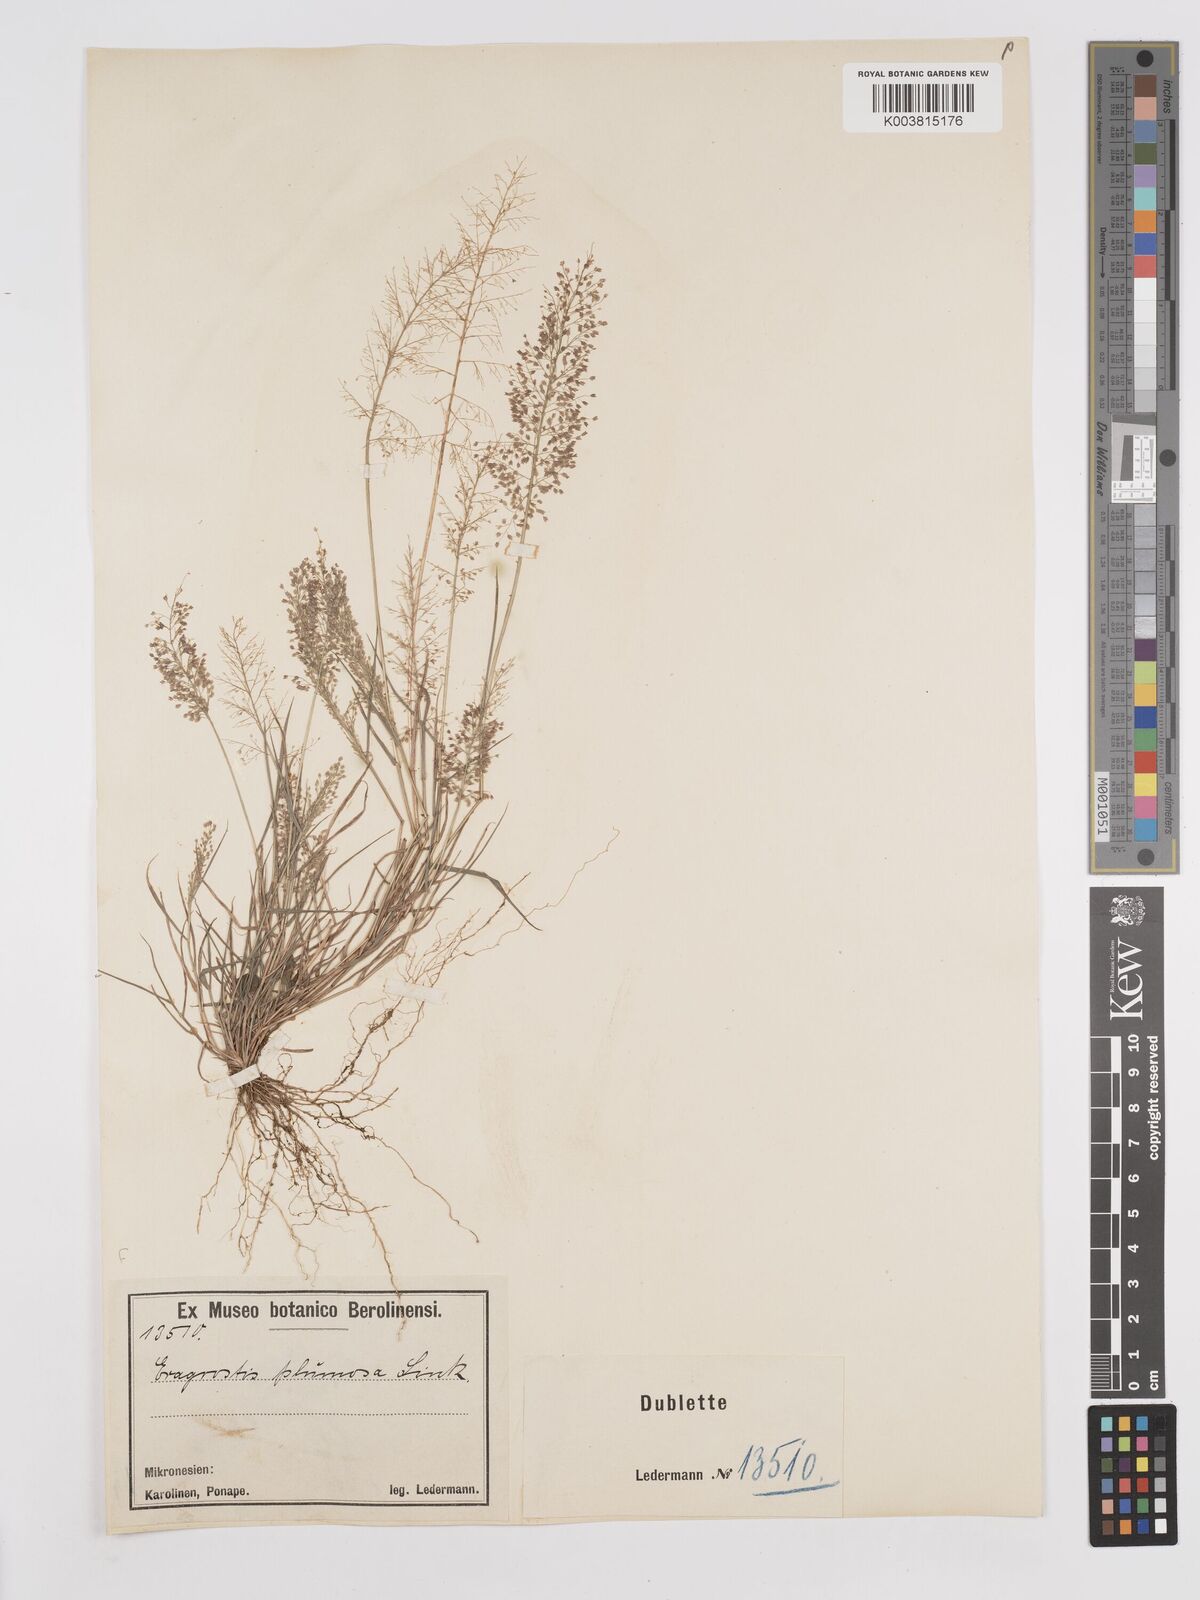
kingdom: Plantae
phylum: Tracheophyta
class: Liliopsida
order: Poales
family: Poaceae
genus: Eragrostis
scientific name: Eragrostis tenella
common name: Japanese lovegrass
